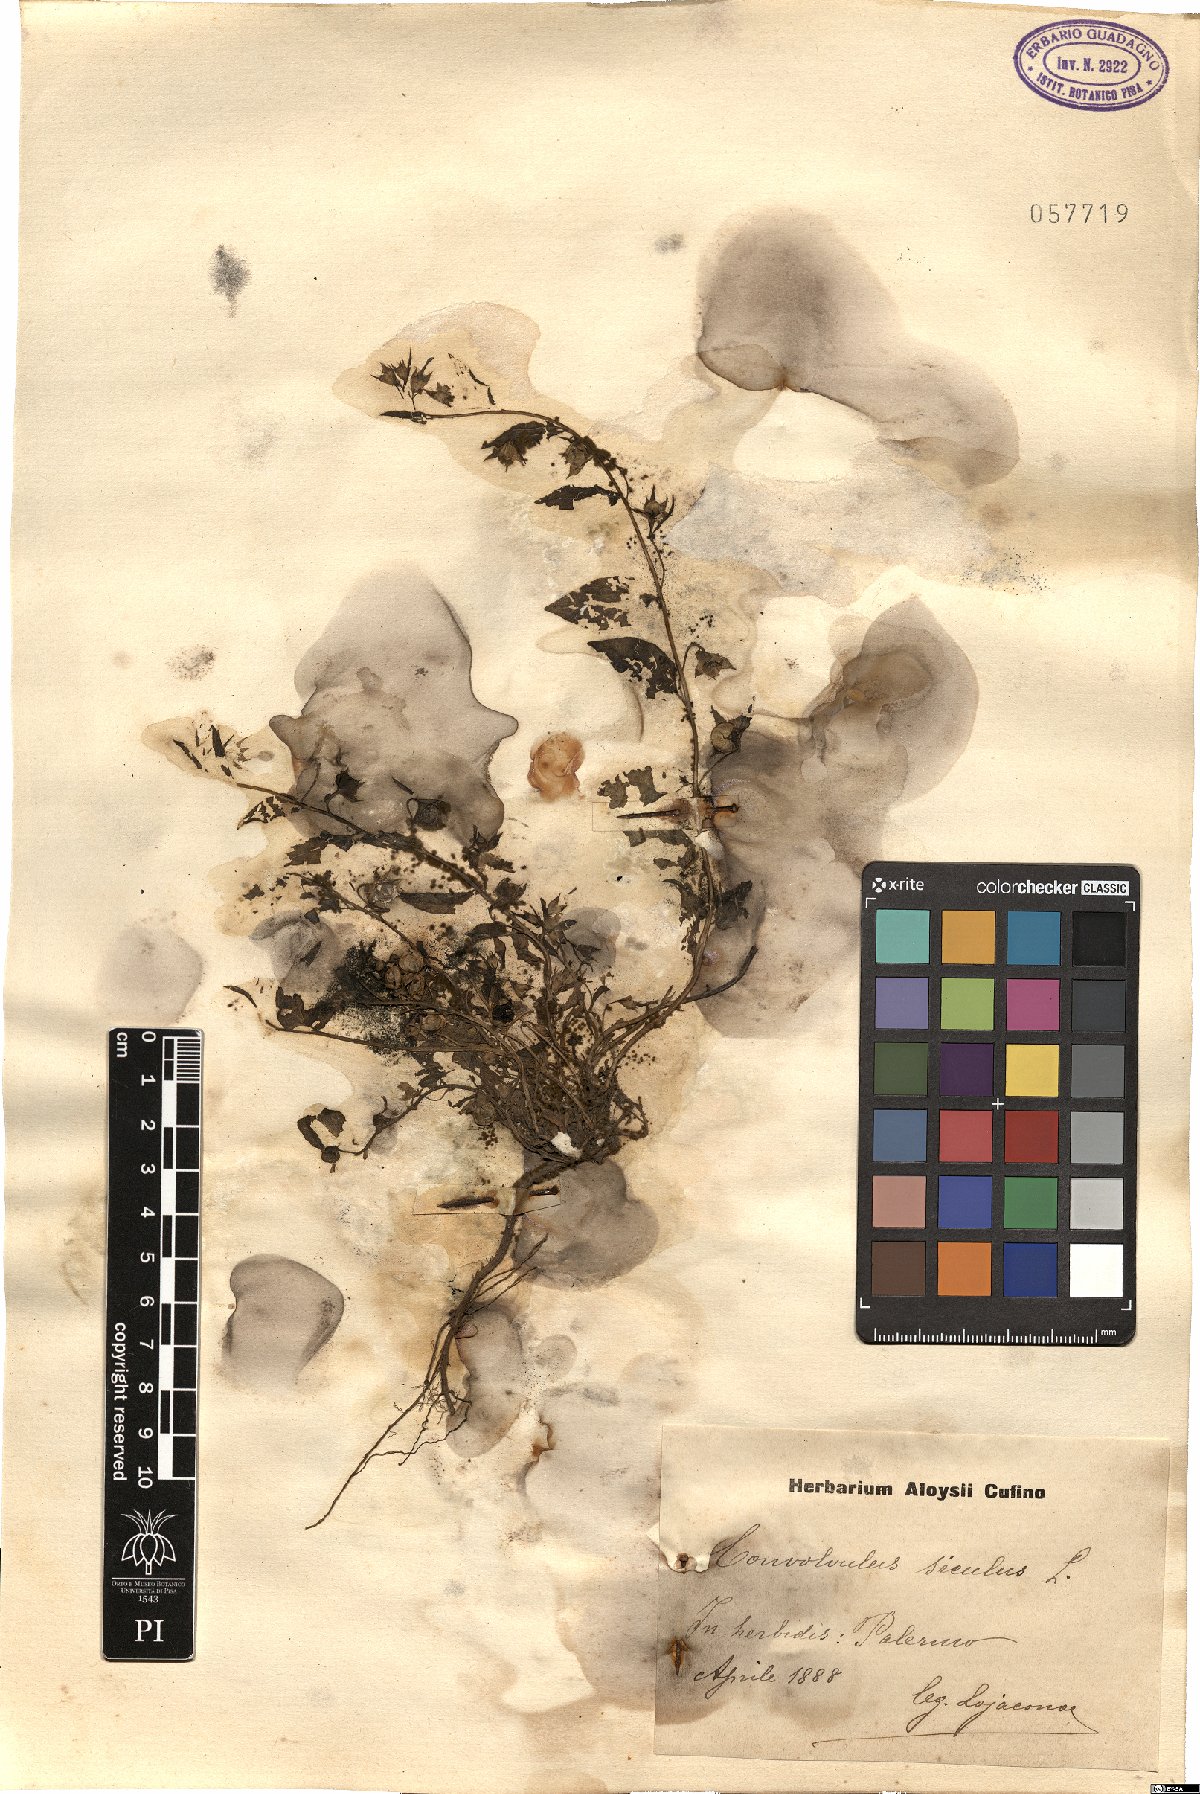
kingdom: Plantae
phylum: Tracheophyta
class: Magnoliopsida
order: Solanales
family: Convolvulaceae
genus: Convolvulus
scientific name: Convolvulus siculus
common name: Small blue-convolvulus
